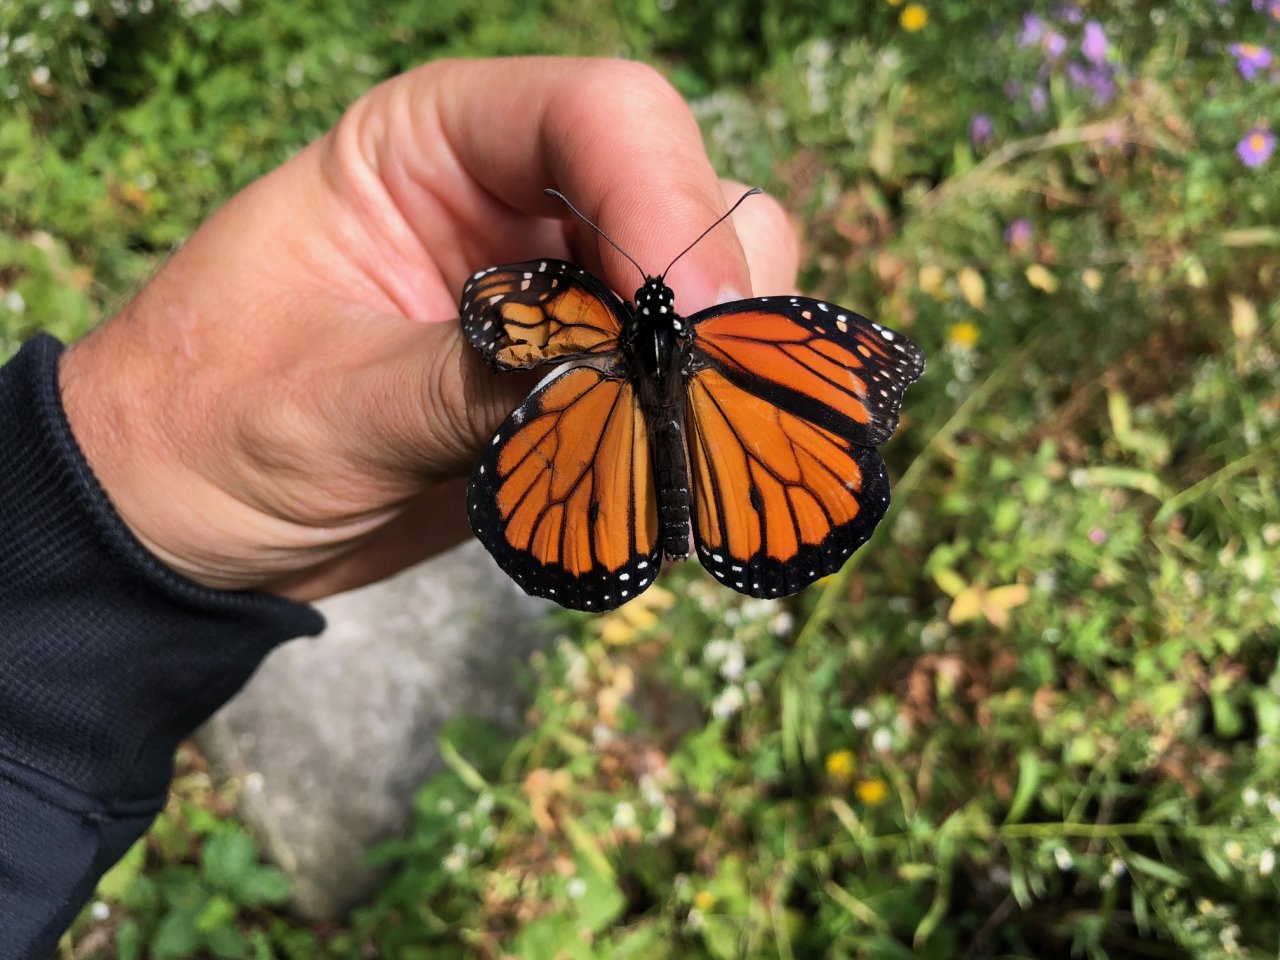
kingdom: Animalia
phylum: Arthropoda
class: Insecta
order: Lepidoptera
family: Nymphalidae
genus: Danaus
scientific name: Danaus plexippus
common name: Monarch
